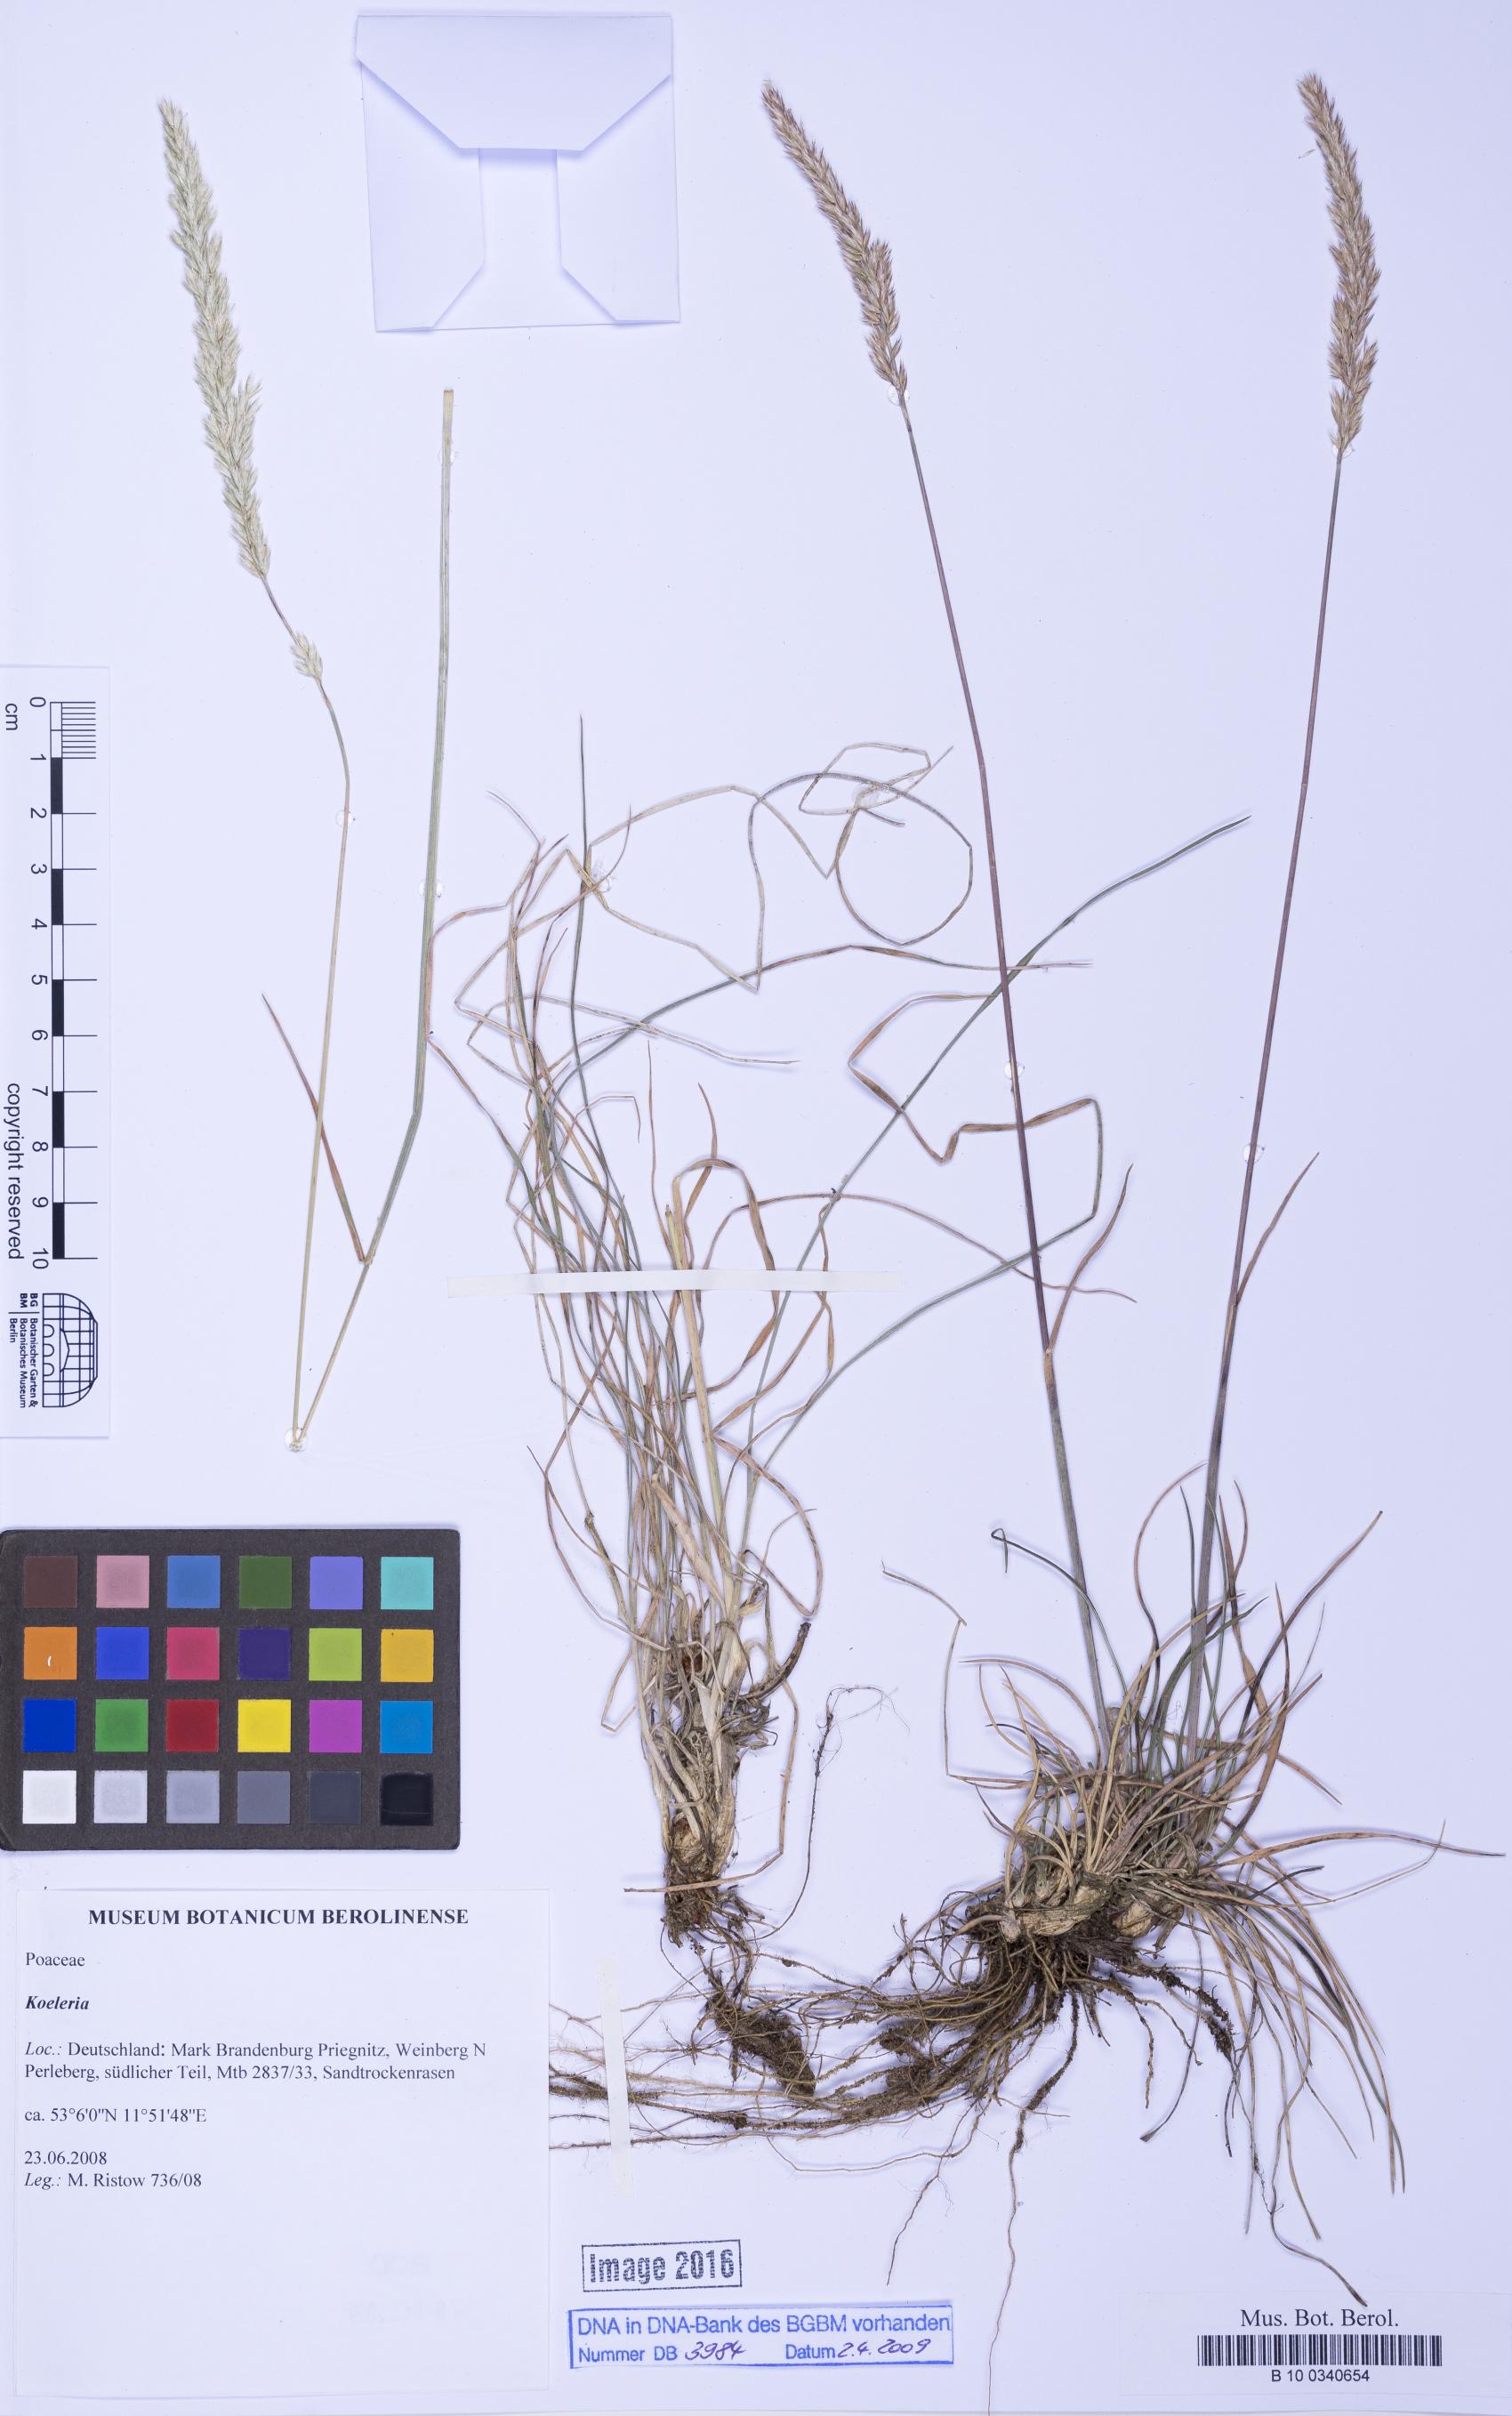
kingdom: Plantae
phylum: Tracheophyta
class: Liliopsida
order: Poales
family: Poaceae
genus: Koeleria
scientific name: Koeleria
